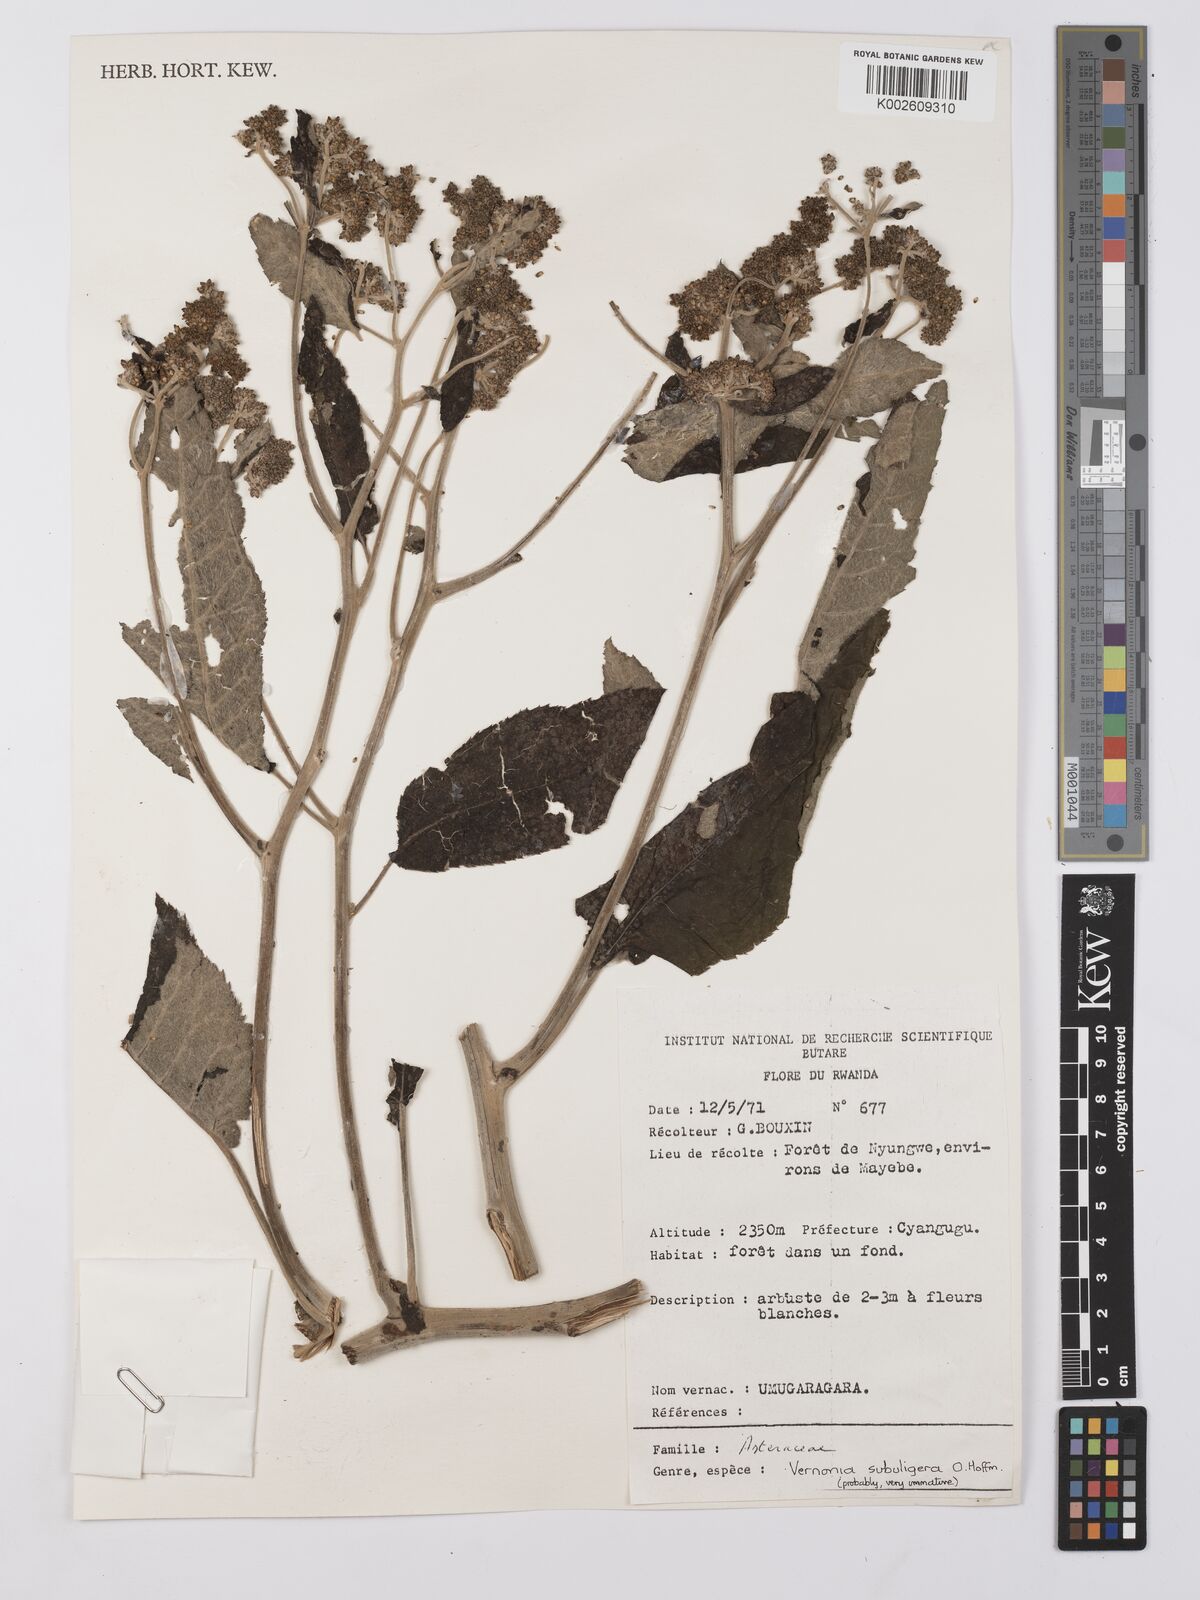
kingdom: Plantae
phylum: Tracheophyta
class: Magnoliopsida
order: Asterales
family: Asteraceae
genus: Gymnanthemum
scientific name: Gymnanthemum myrianthum
